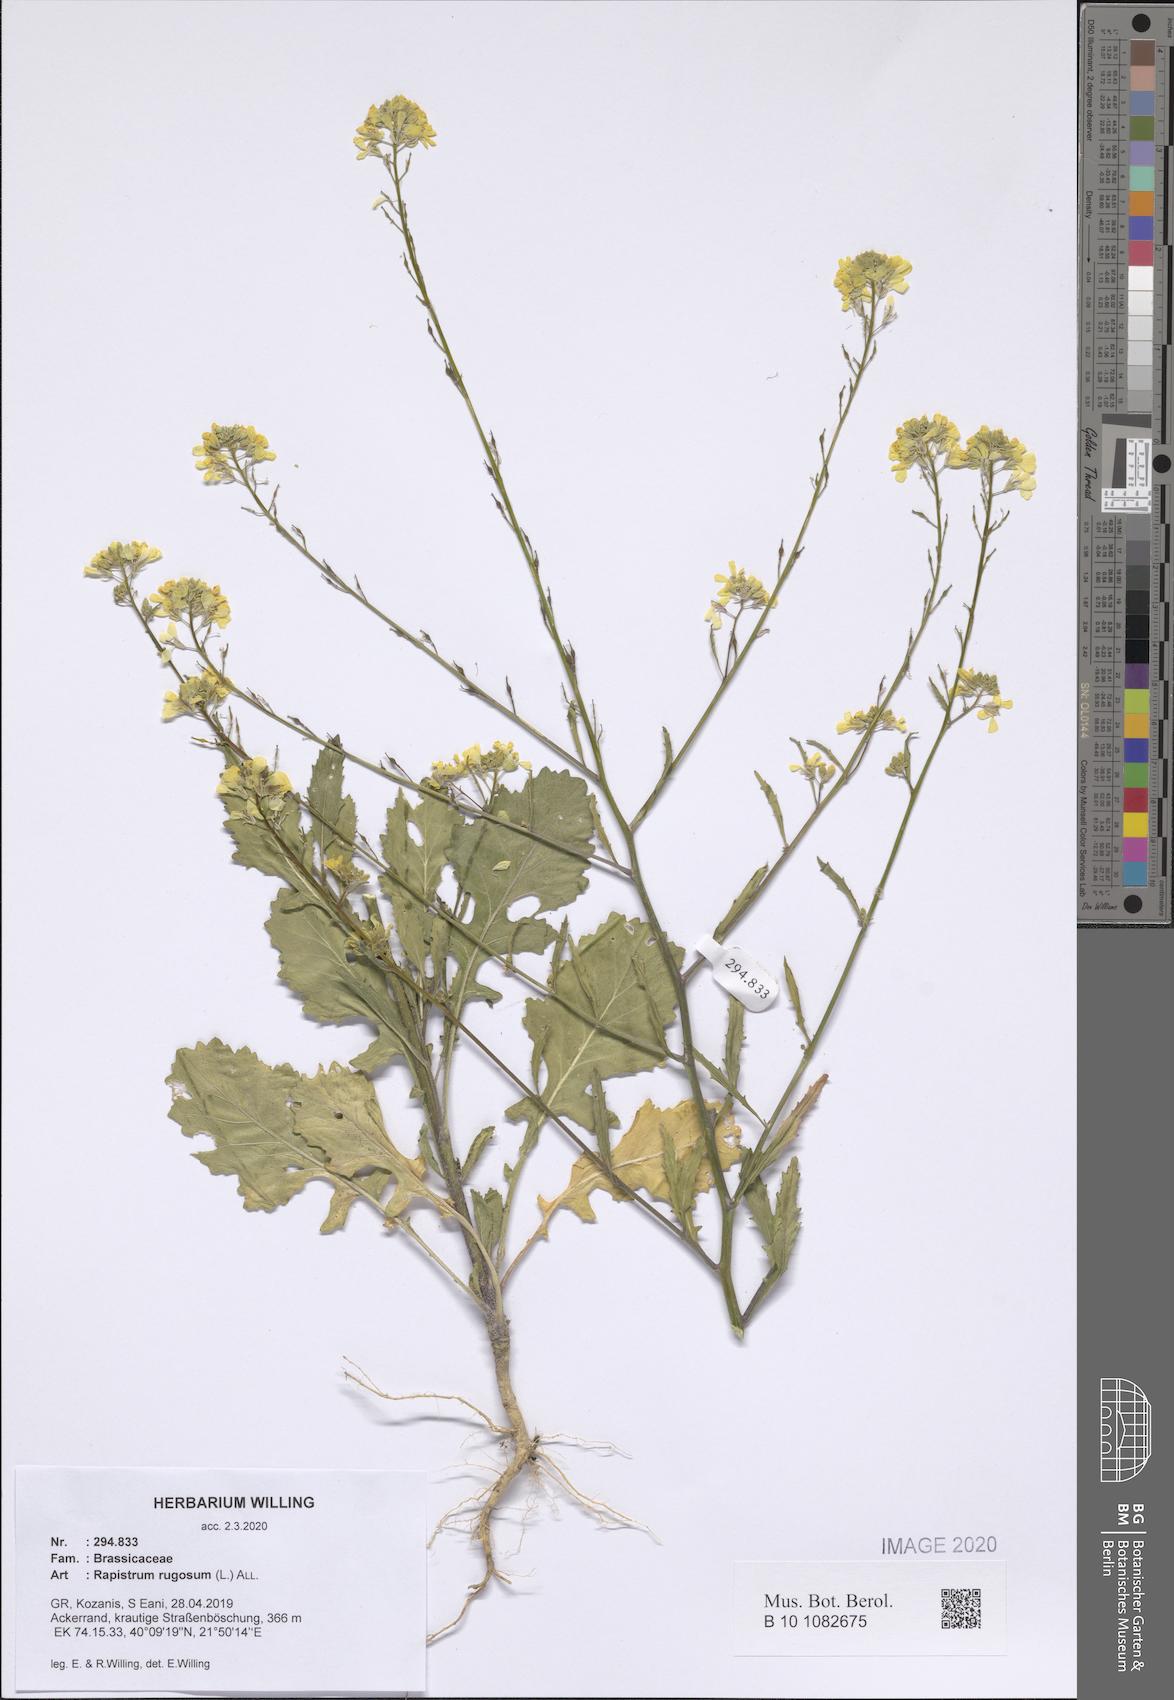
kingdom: Plantae
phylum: Tracheophyta
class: Magnoliopsida
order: Brassicales
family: Brassicaceae
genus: Rapistrum
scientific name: Rapistrum rugosum
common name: Annual bastardcabbage
